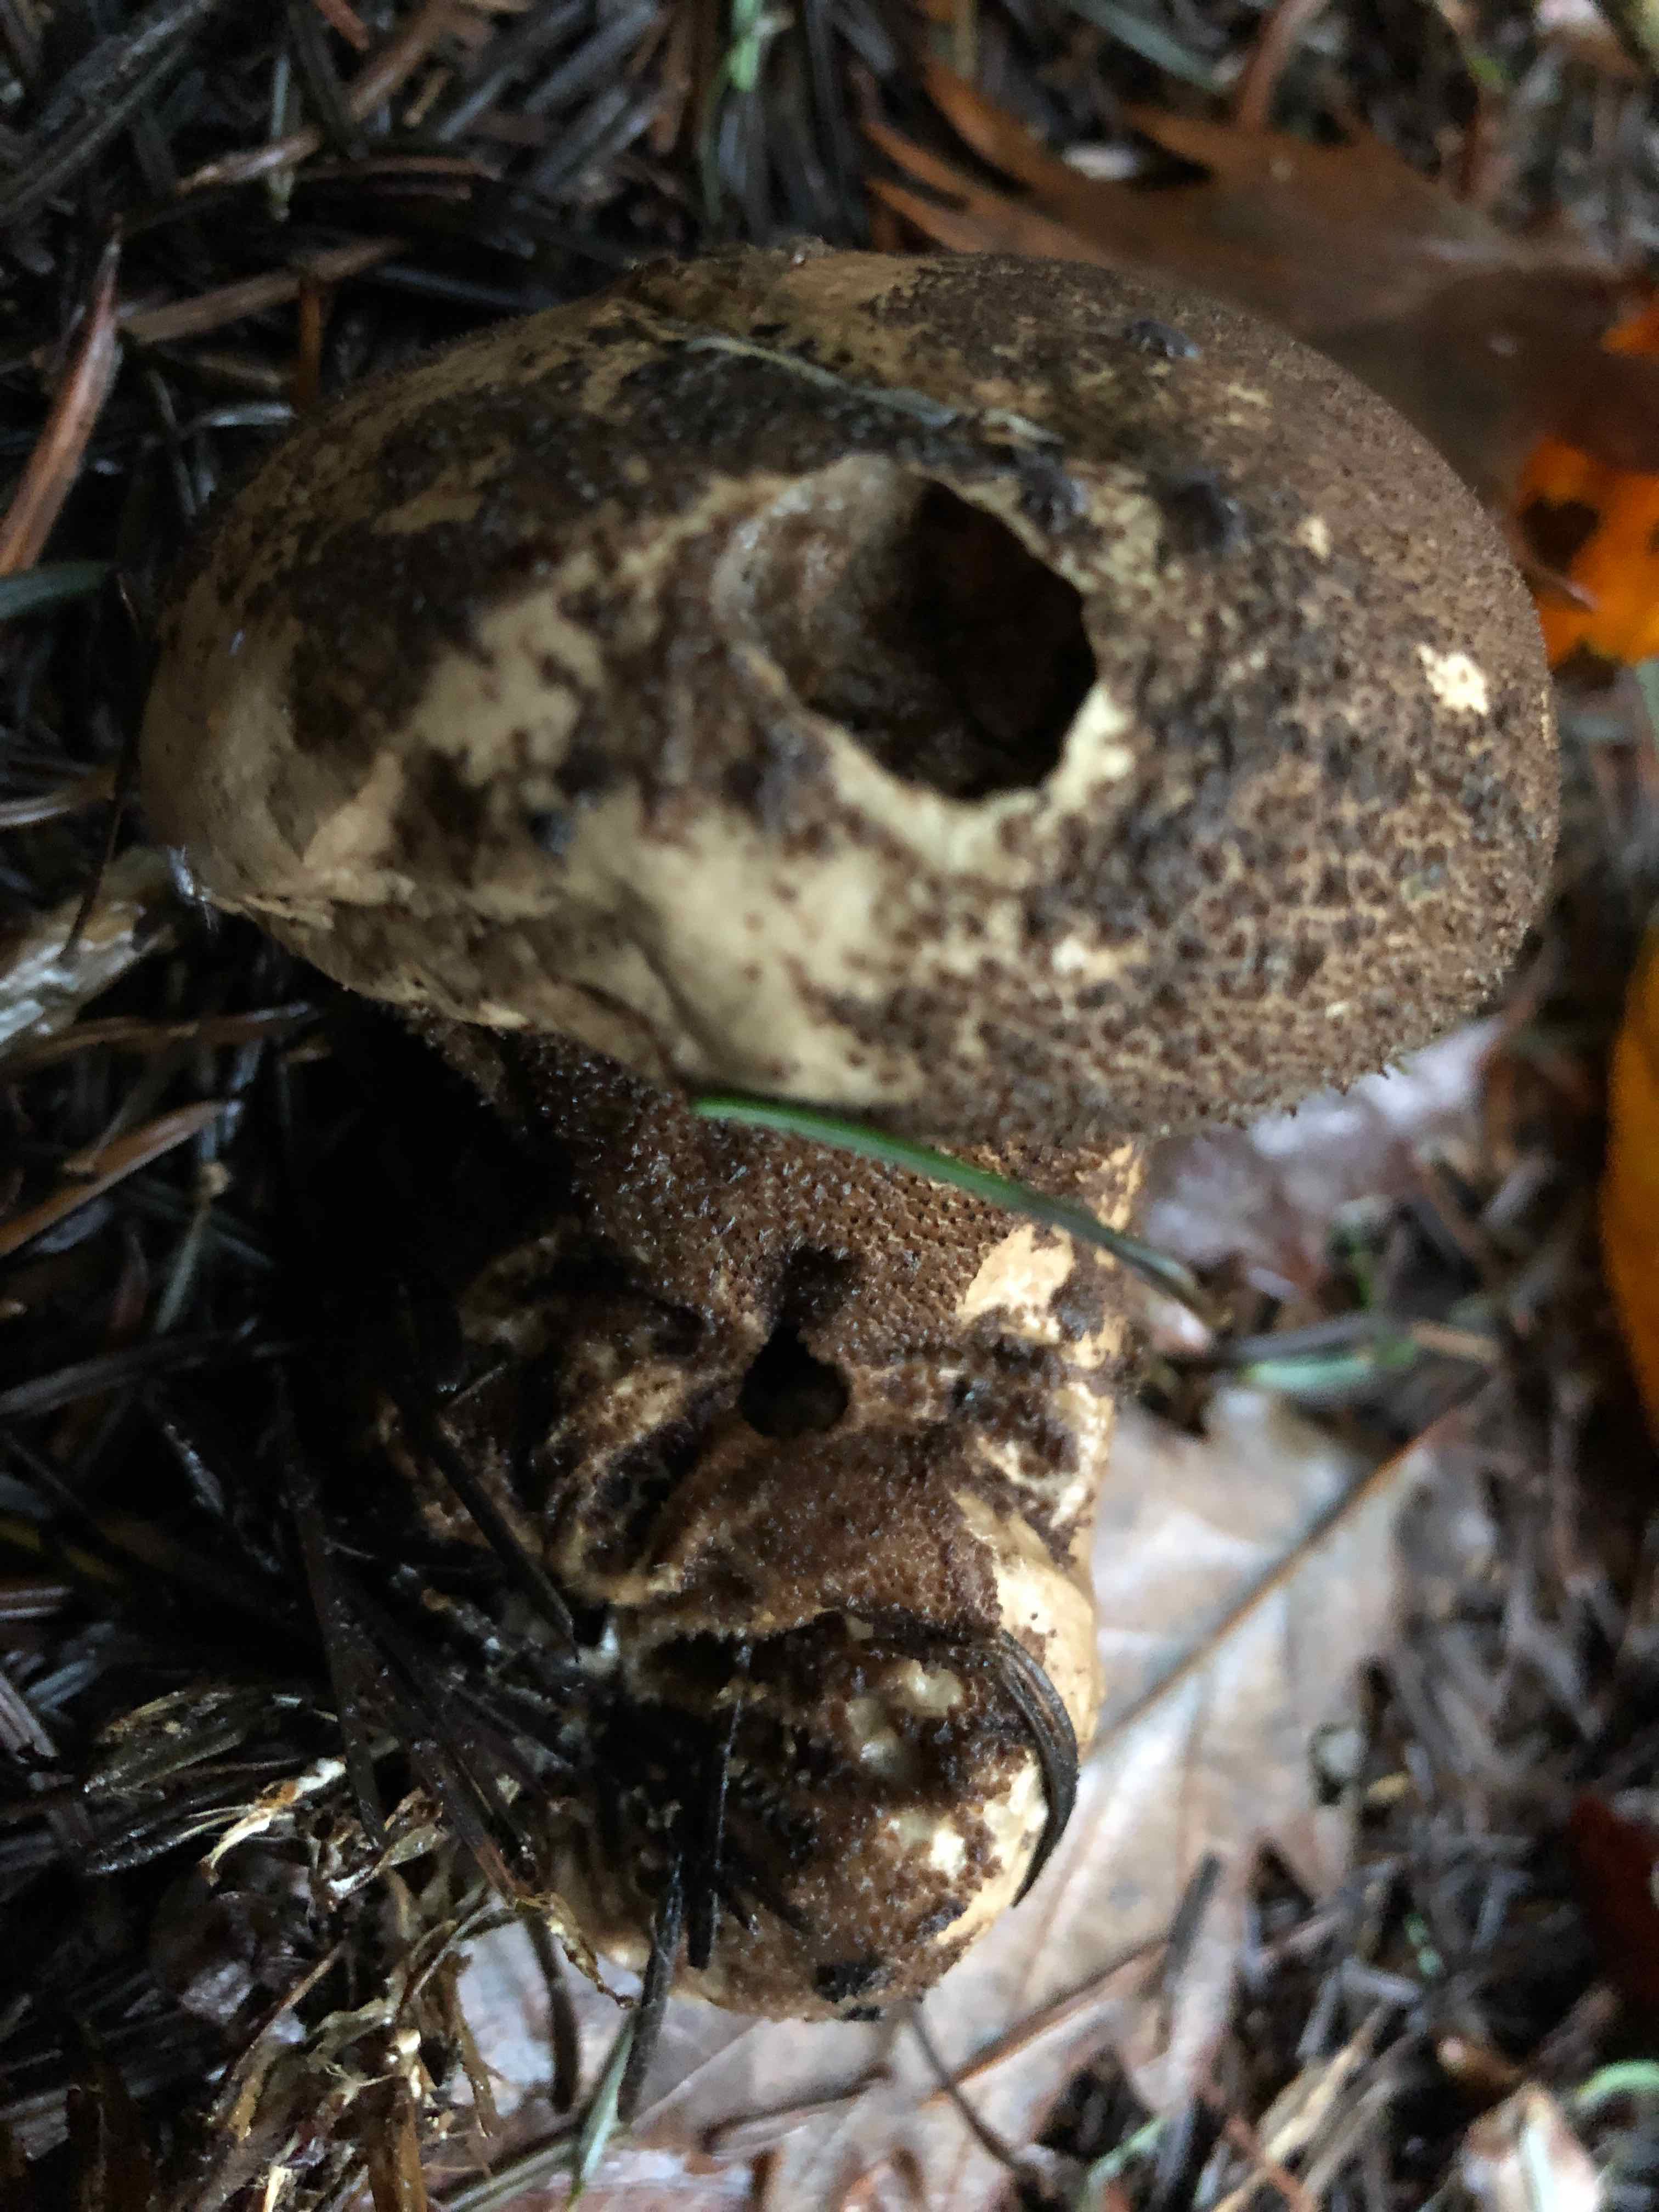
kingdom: Fungi
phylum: Basidiomycota
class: Agaricomycetes
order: Agaricales
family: Lycoperdaceae
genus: Lycoperdon
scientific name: Lycoperdon nigrescens
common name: sortagtig støvbold
